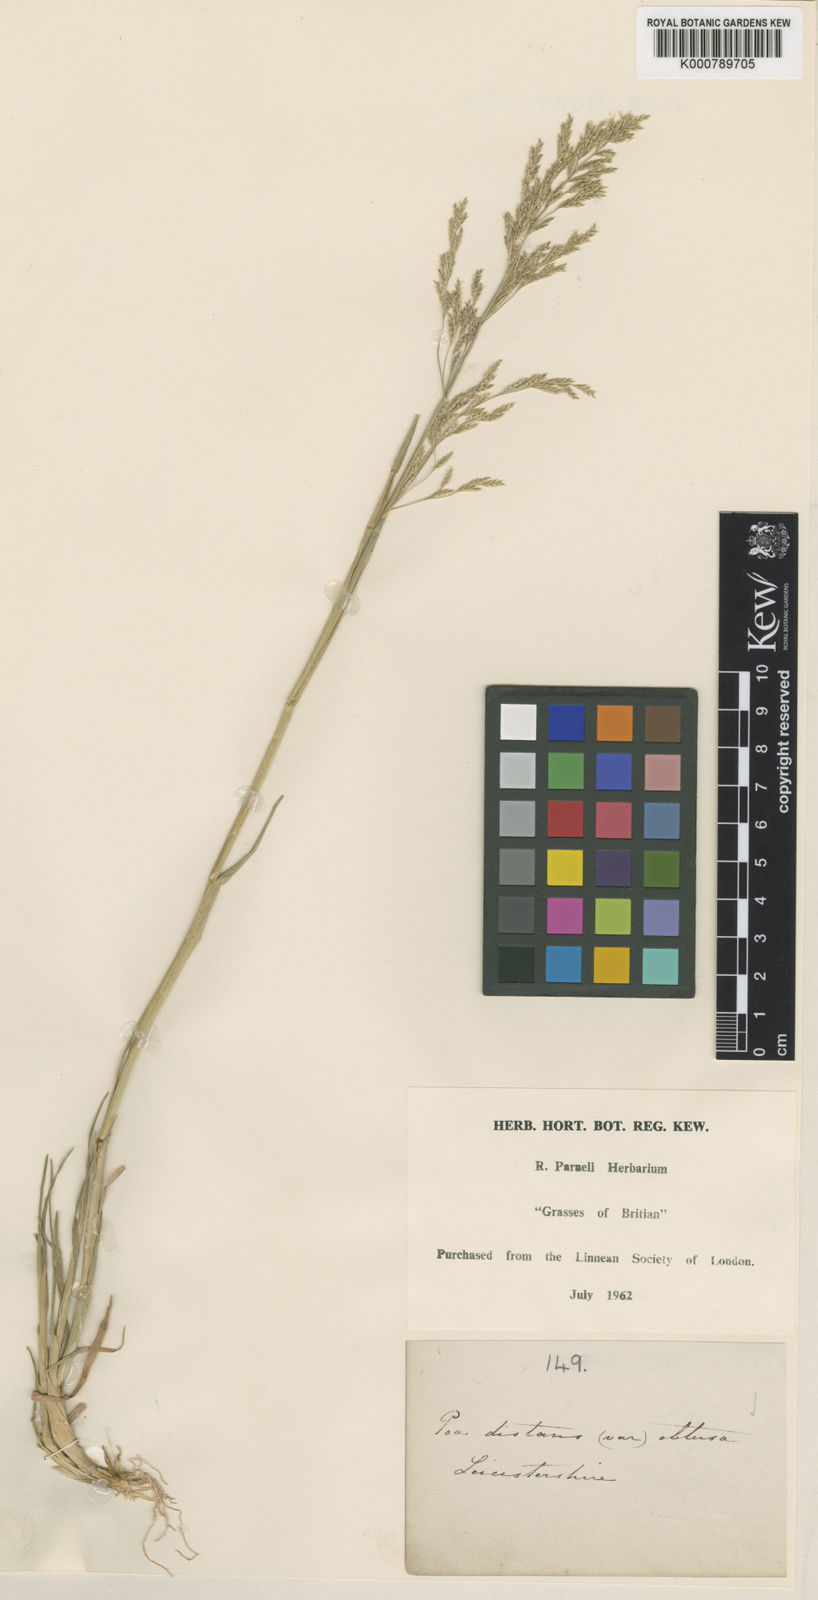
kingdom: Plantae
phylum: Tracheophyta
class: Liliopsida
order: Poales
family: Poaceae
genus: Puccinellia
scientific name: Puccinellia distans
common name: Weeping alkaligrass
